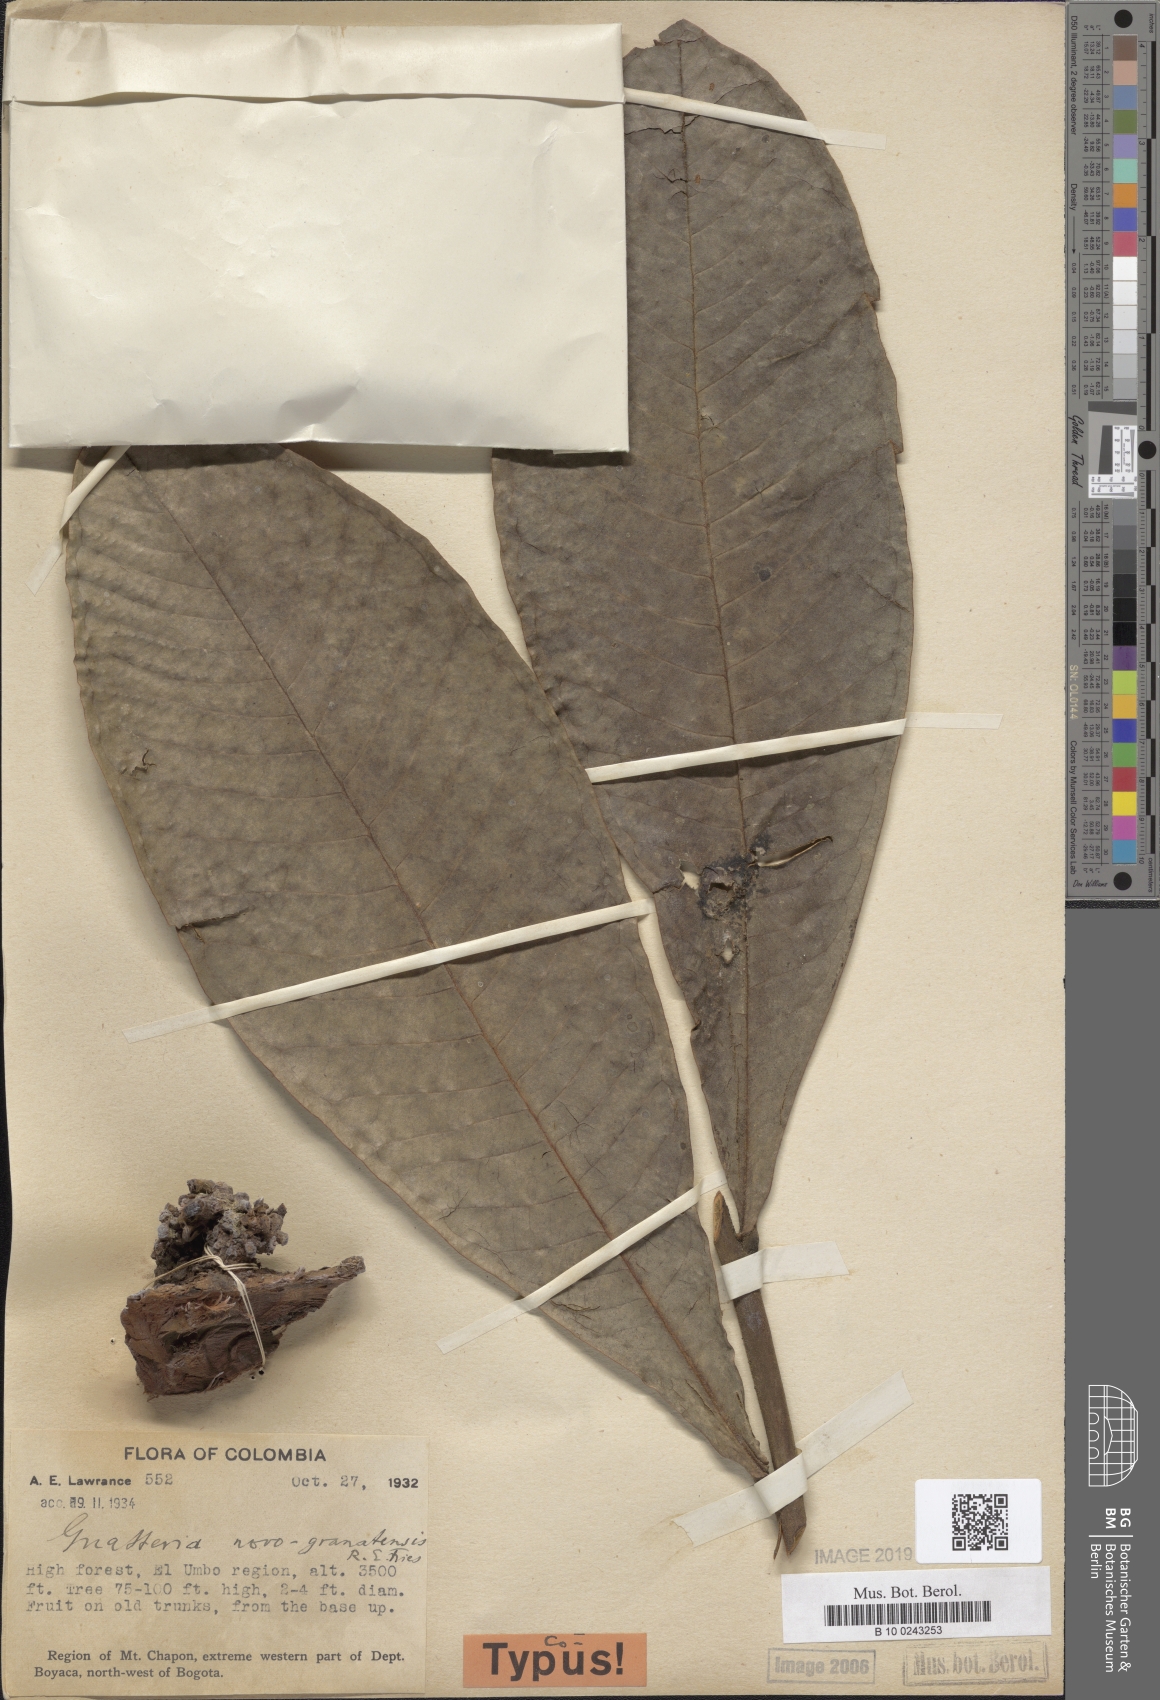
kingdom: Plantae
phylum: Tracheophyta
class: Magnoliopsida
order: Magnoliales
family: Annonaceae
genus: Guatteria
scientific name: Guatteria novogranatensis
